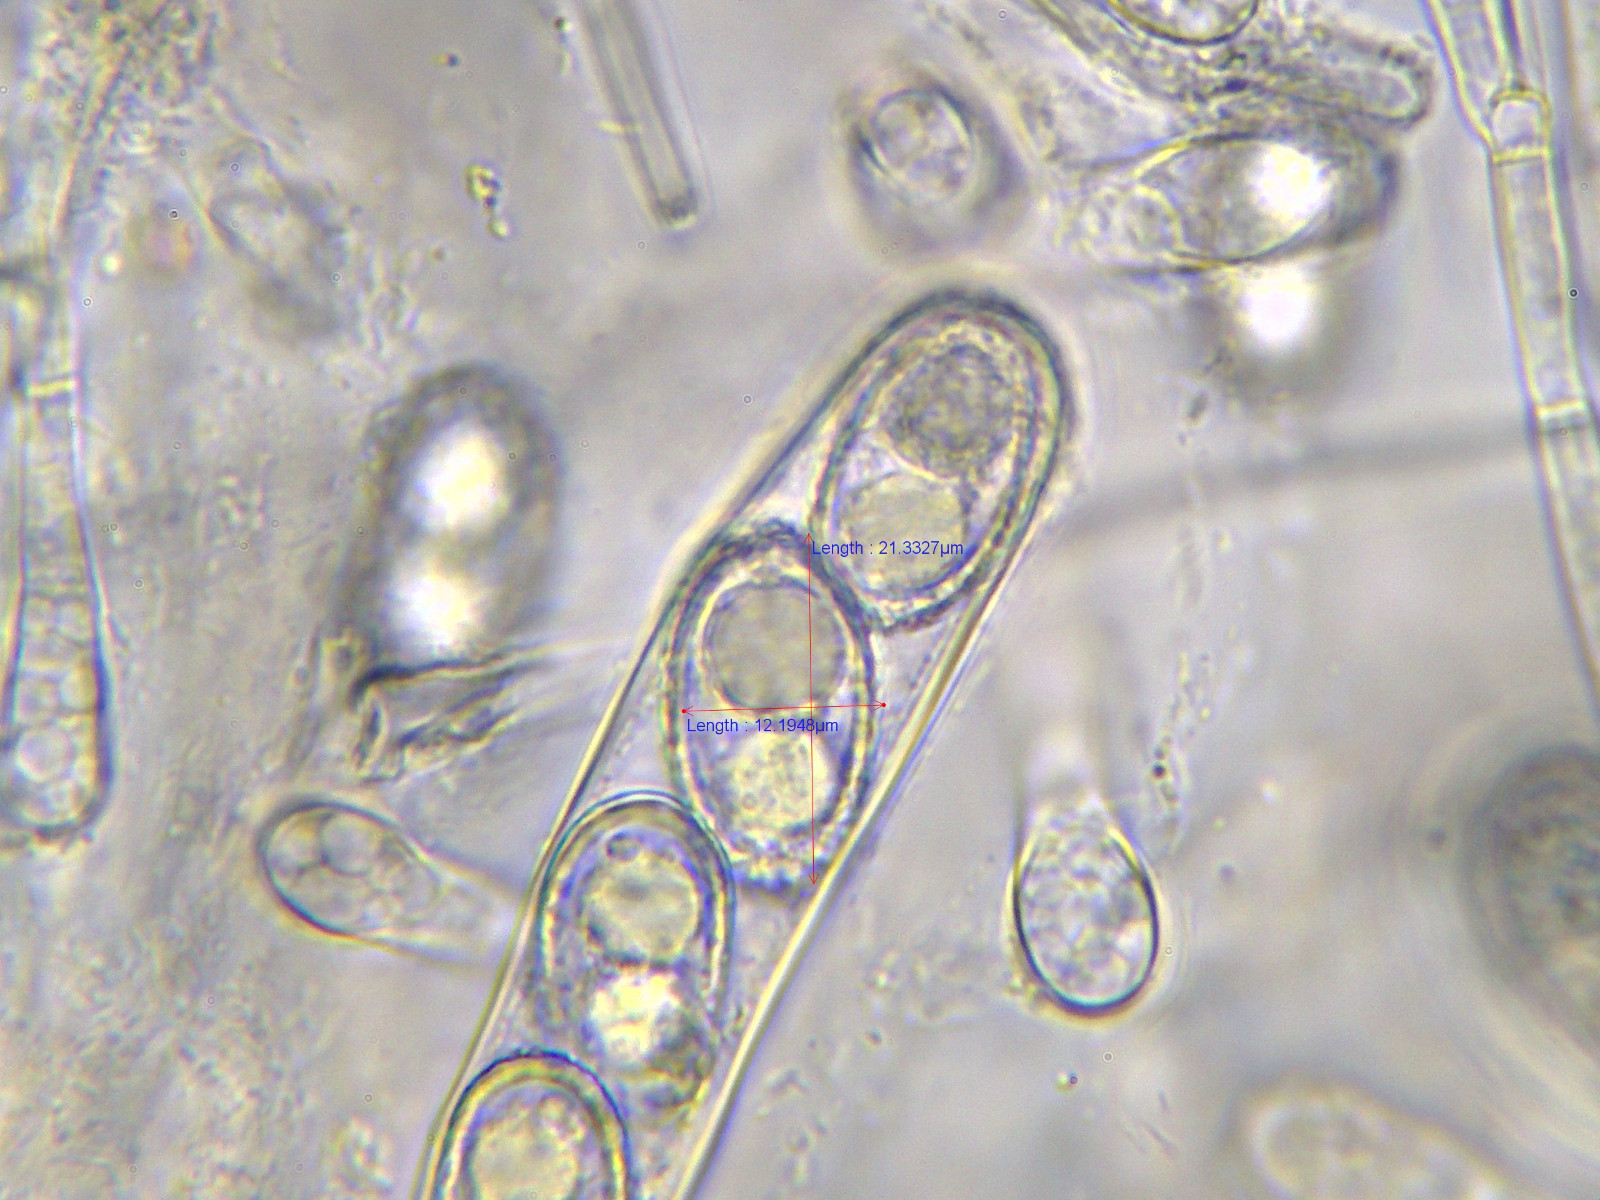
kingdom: Fungi
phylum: Ascomycota
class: Pezizomycetes
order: Pezizales
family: Pyronemataceae
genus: Humaria
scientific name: Humaria hemisphaerica
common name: halvkugleformet børstebæger
